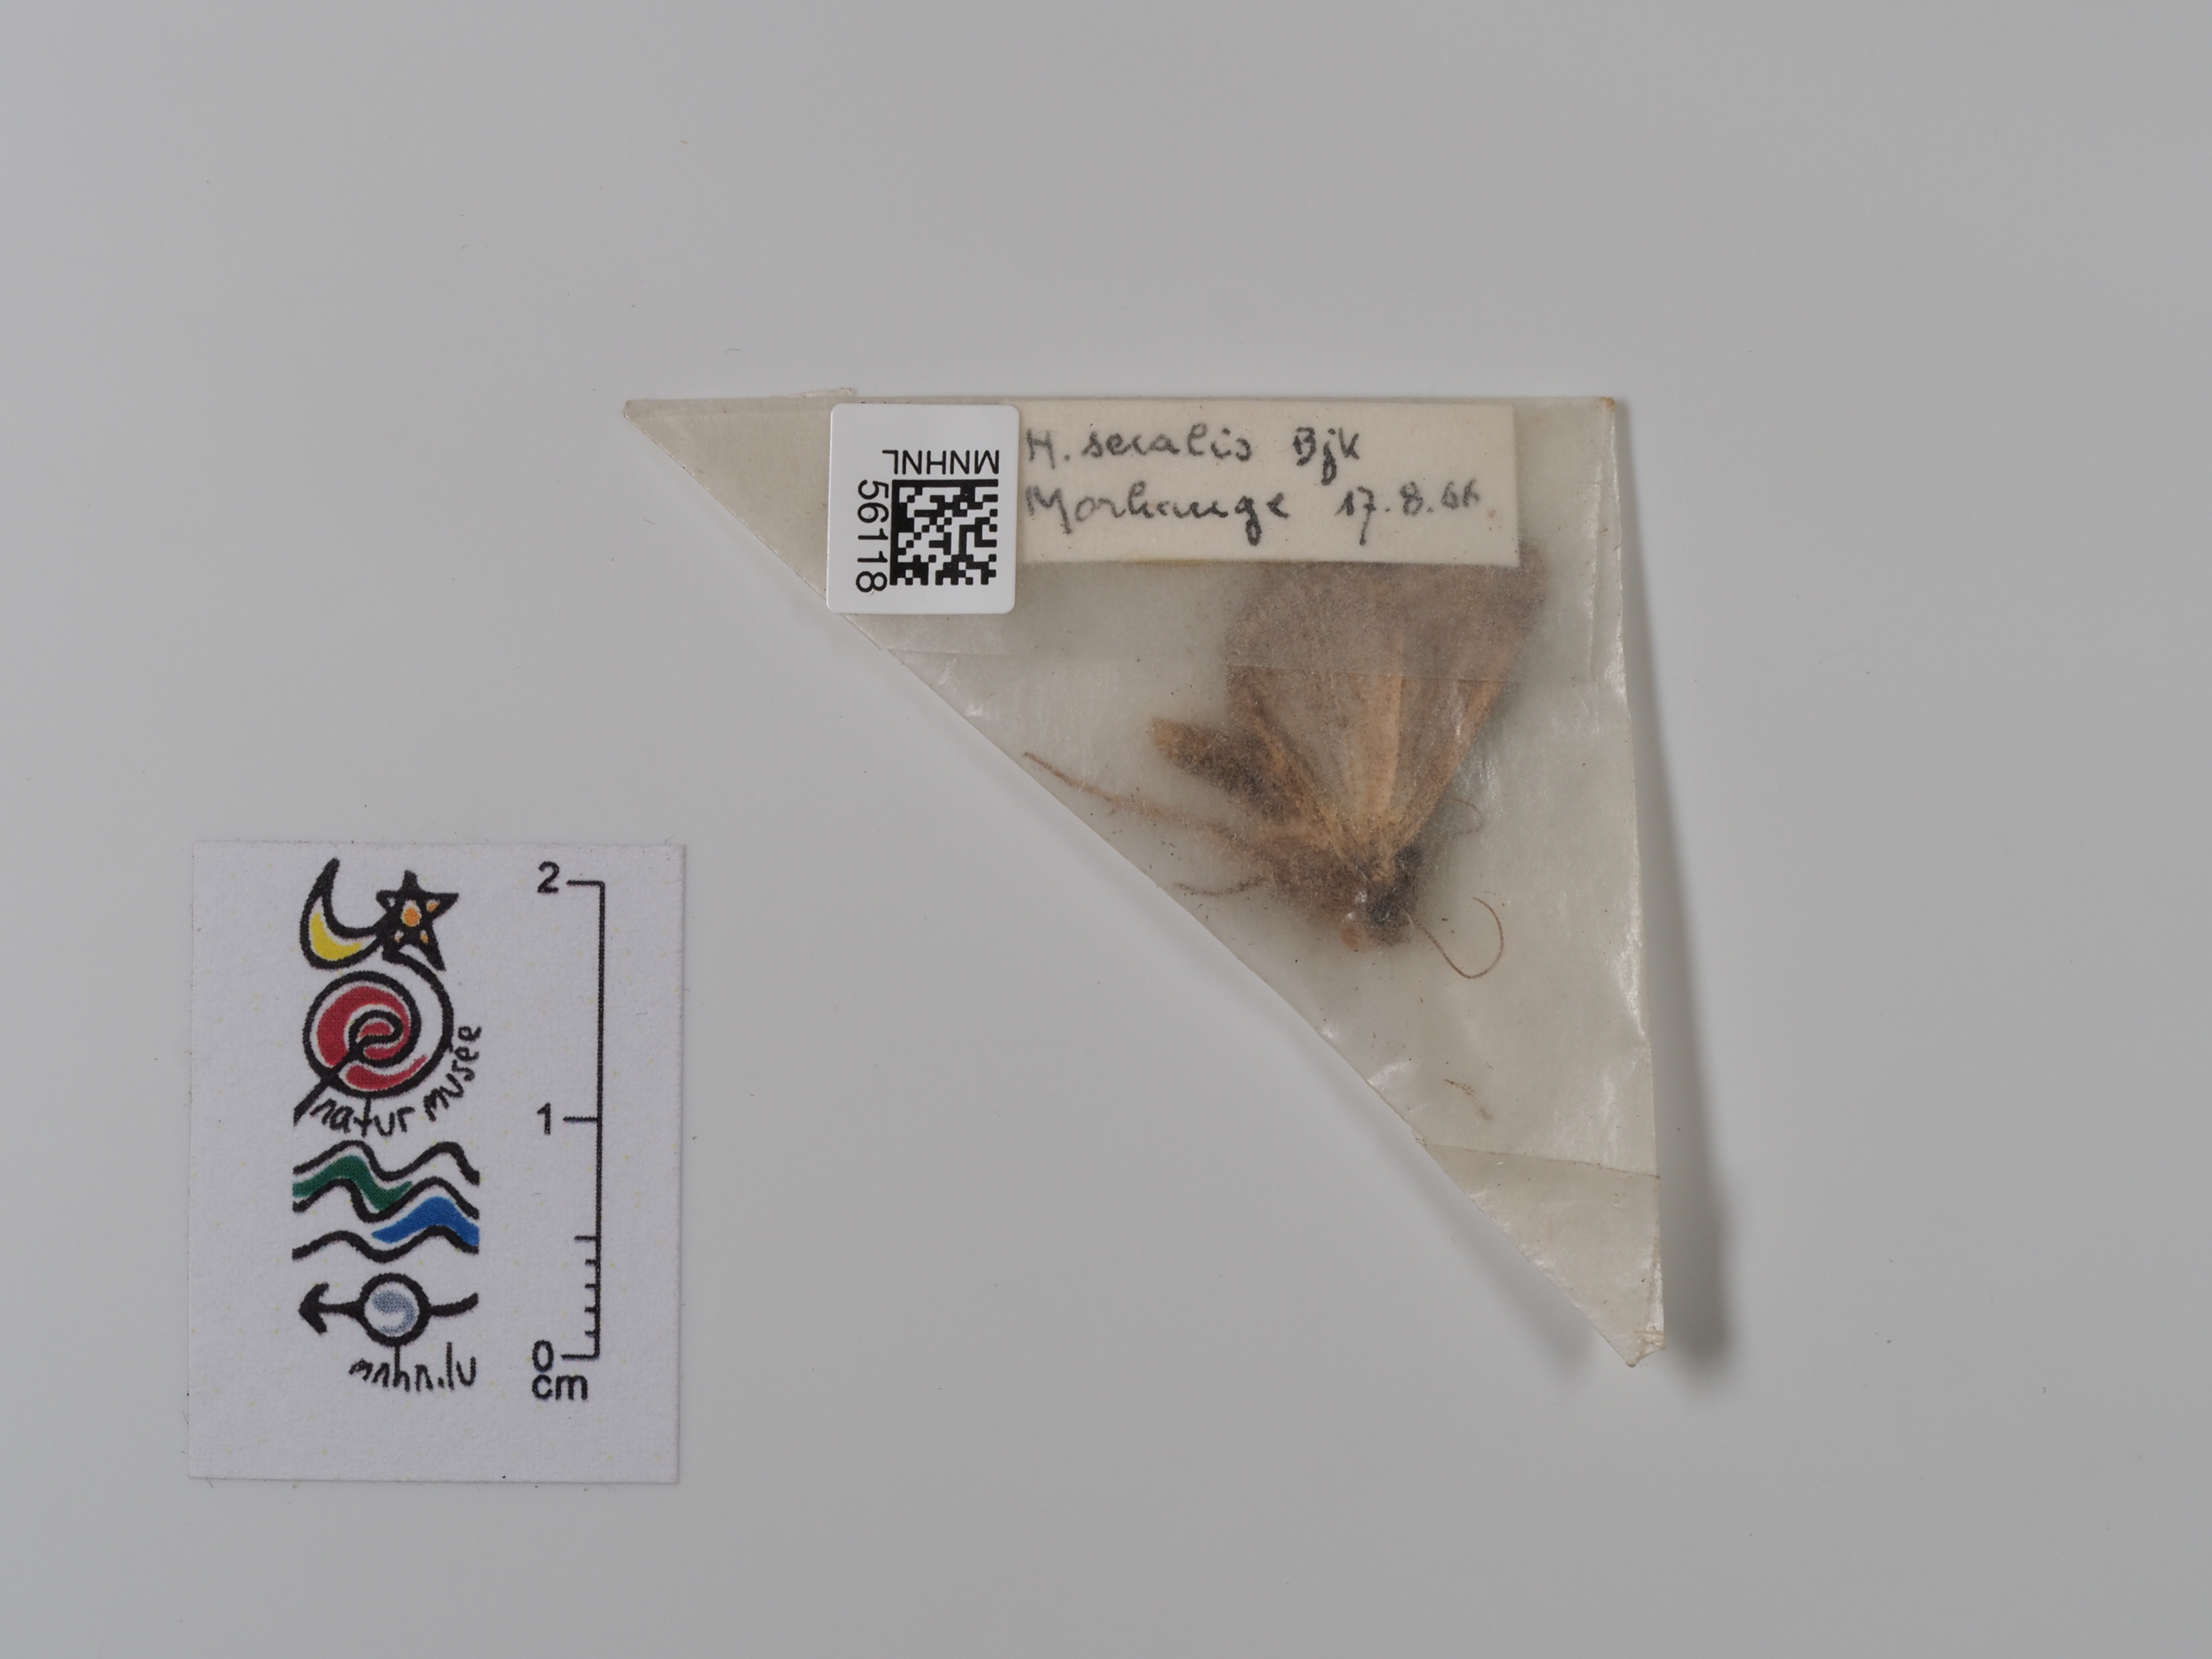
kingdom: Animalia
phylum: Arthropoda
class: Insecta
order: Lepidoptera
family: Noctuidae
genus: Mesapamea
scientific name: Mesapamea secalis
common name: Common rustic
